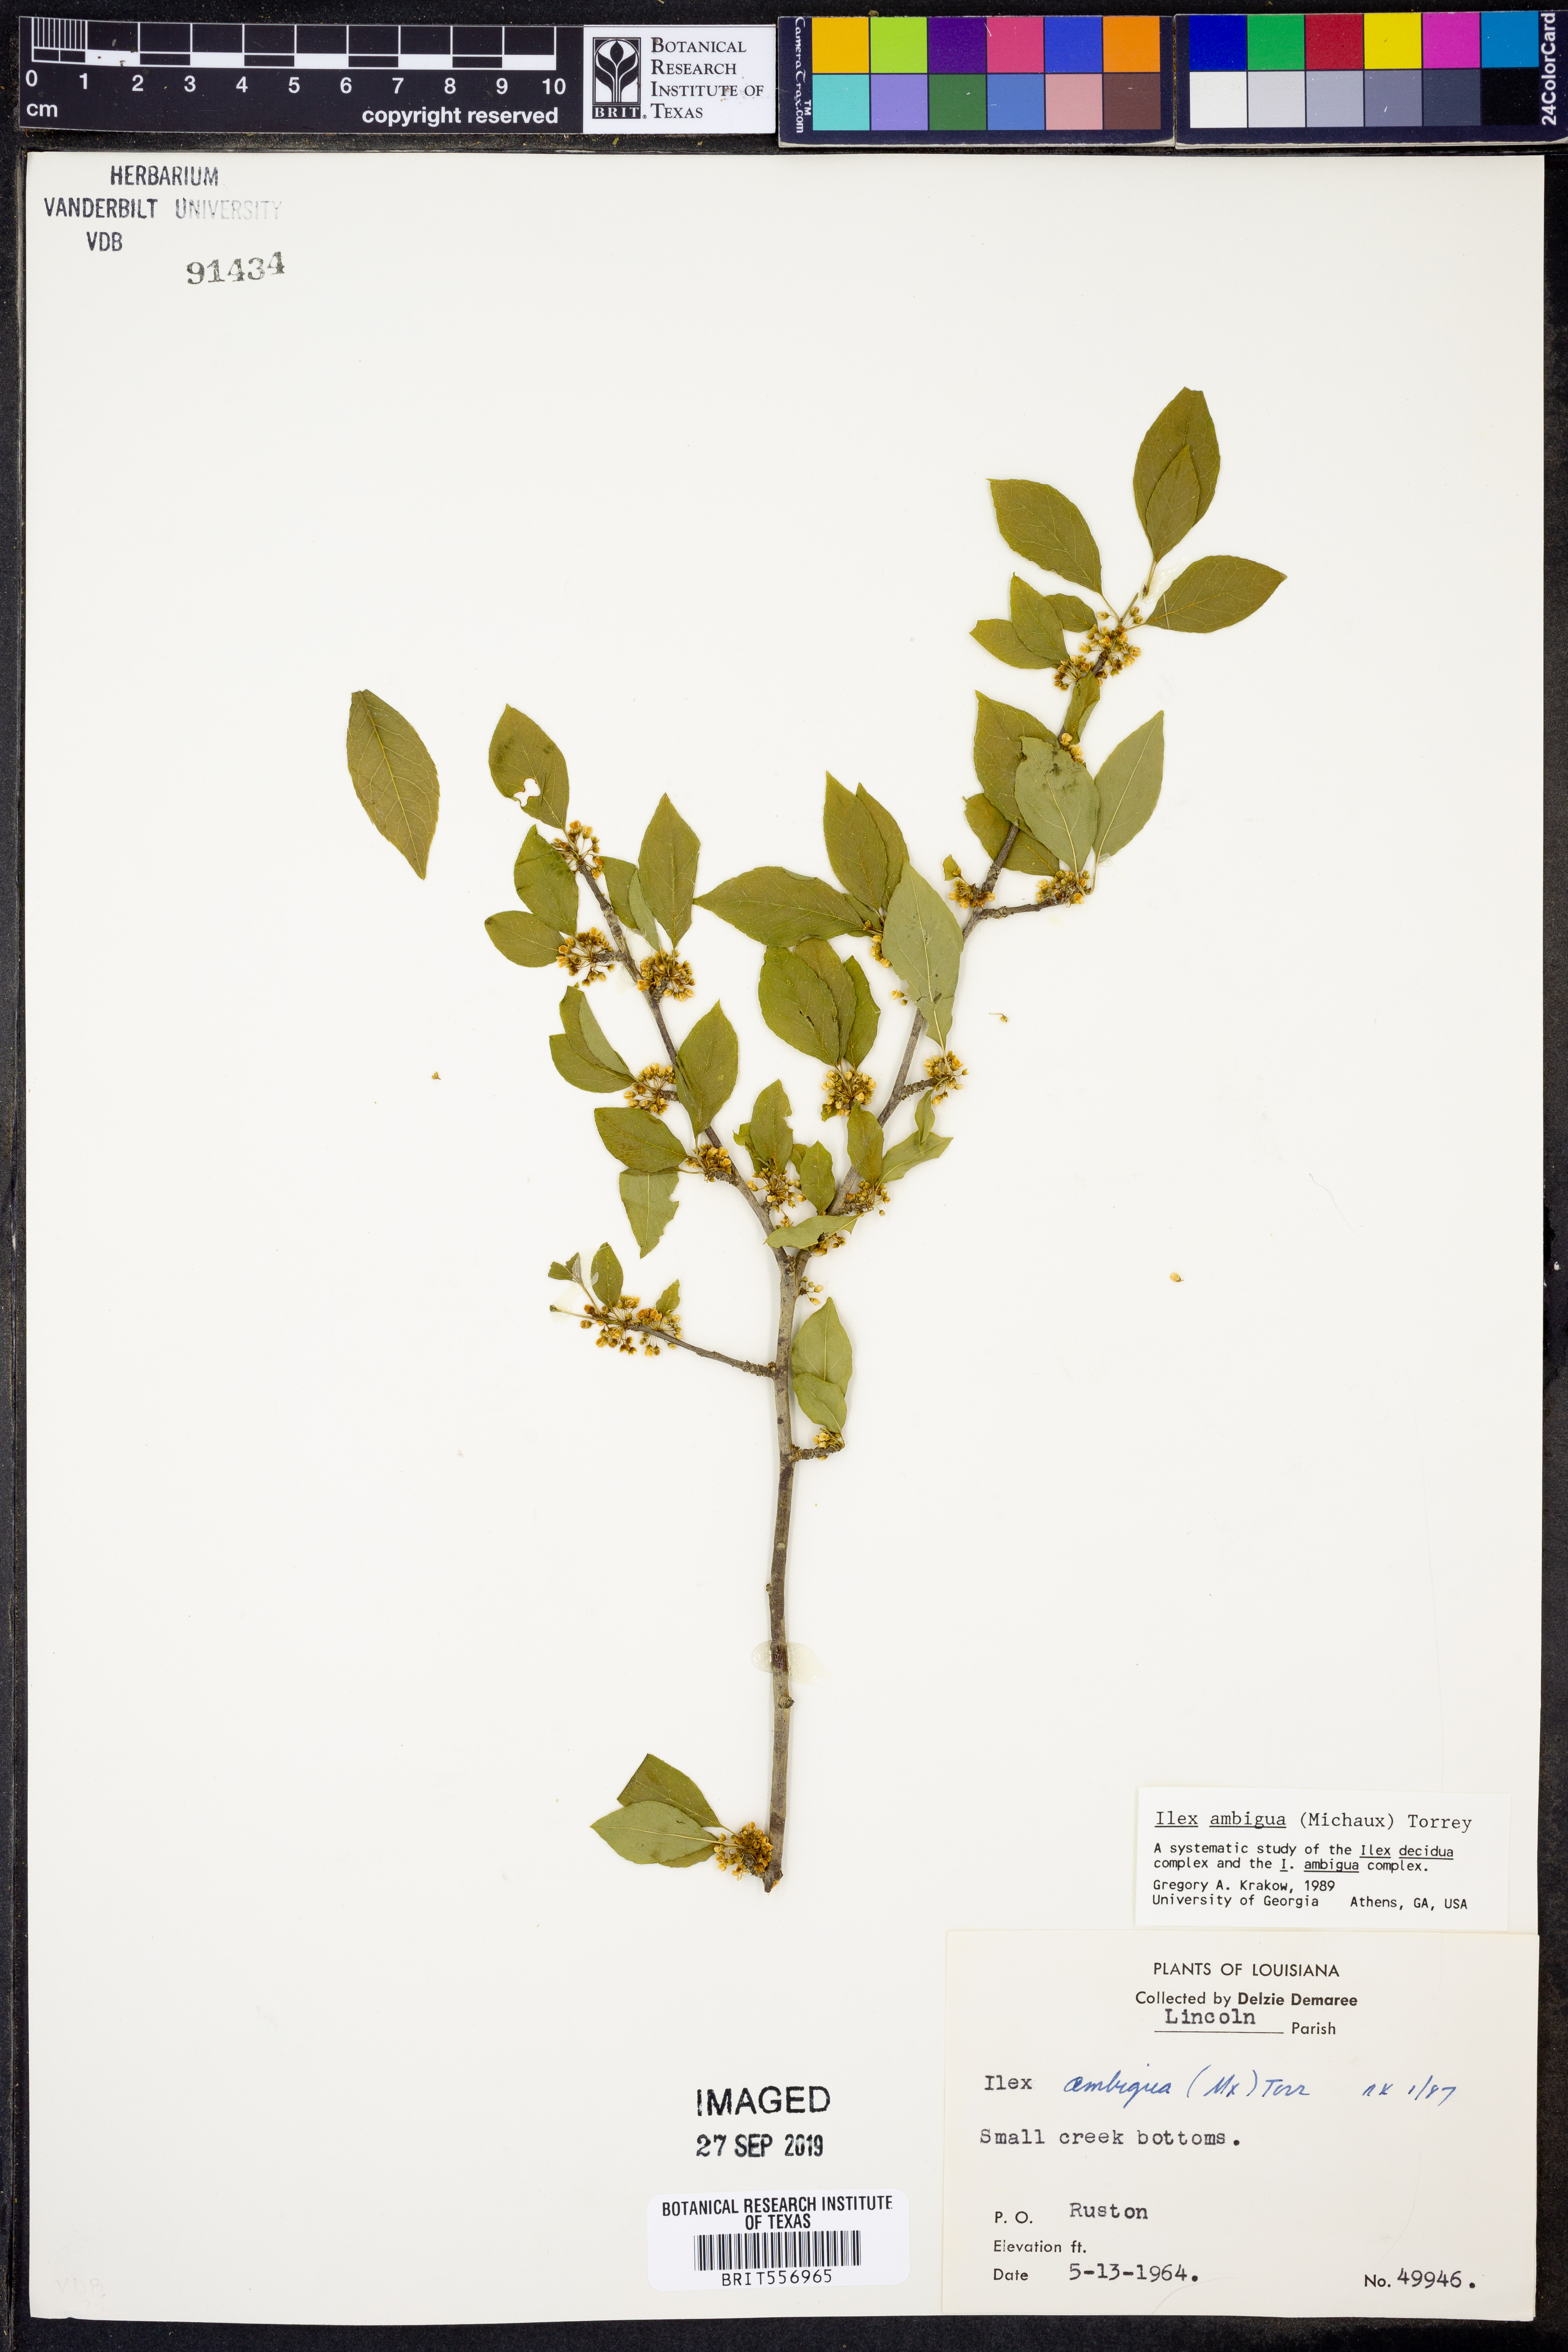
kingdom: Plantae
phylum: Tracheophyta
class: Magnoliopsida
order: Aquifoliales
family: Aquifoliaceae
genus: Ilex
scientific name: Ilex ambigua
